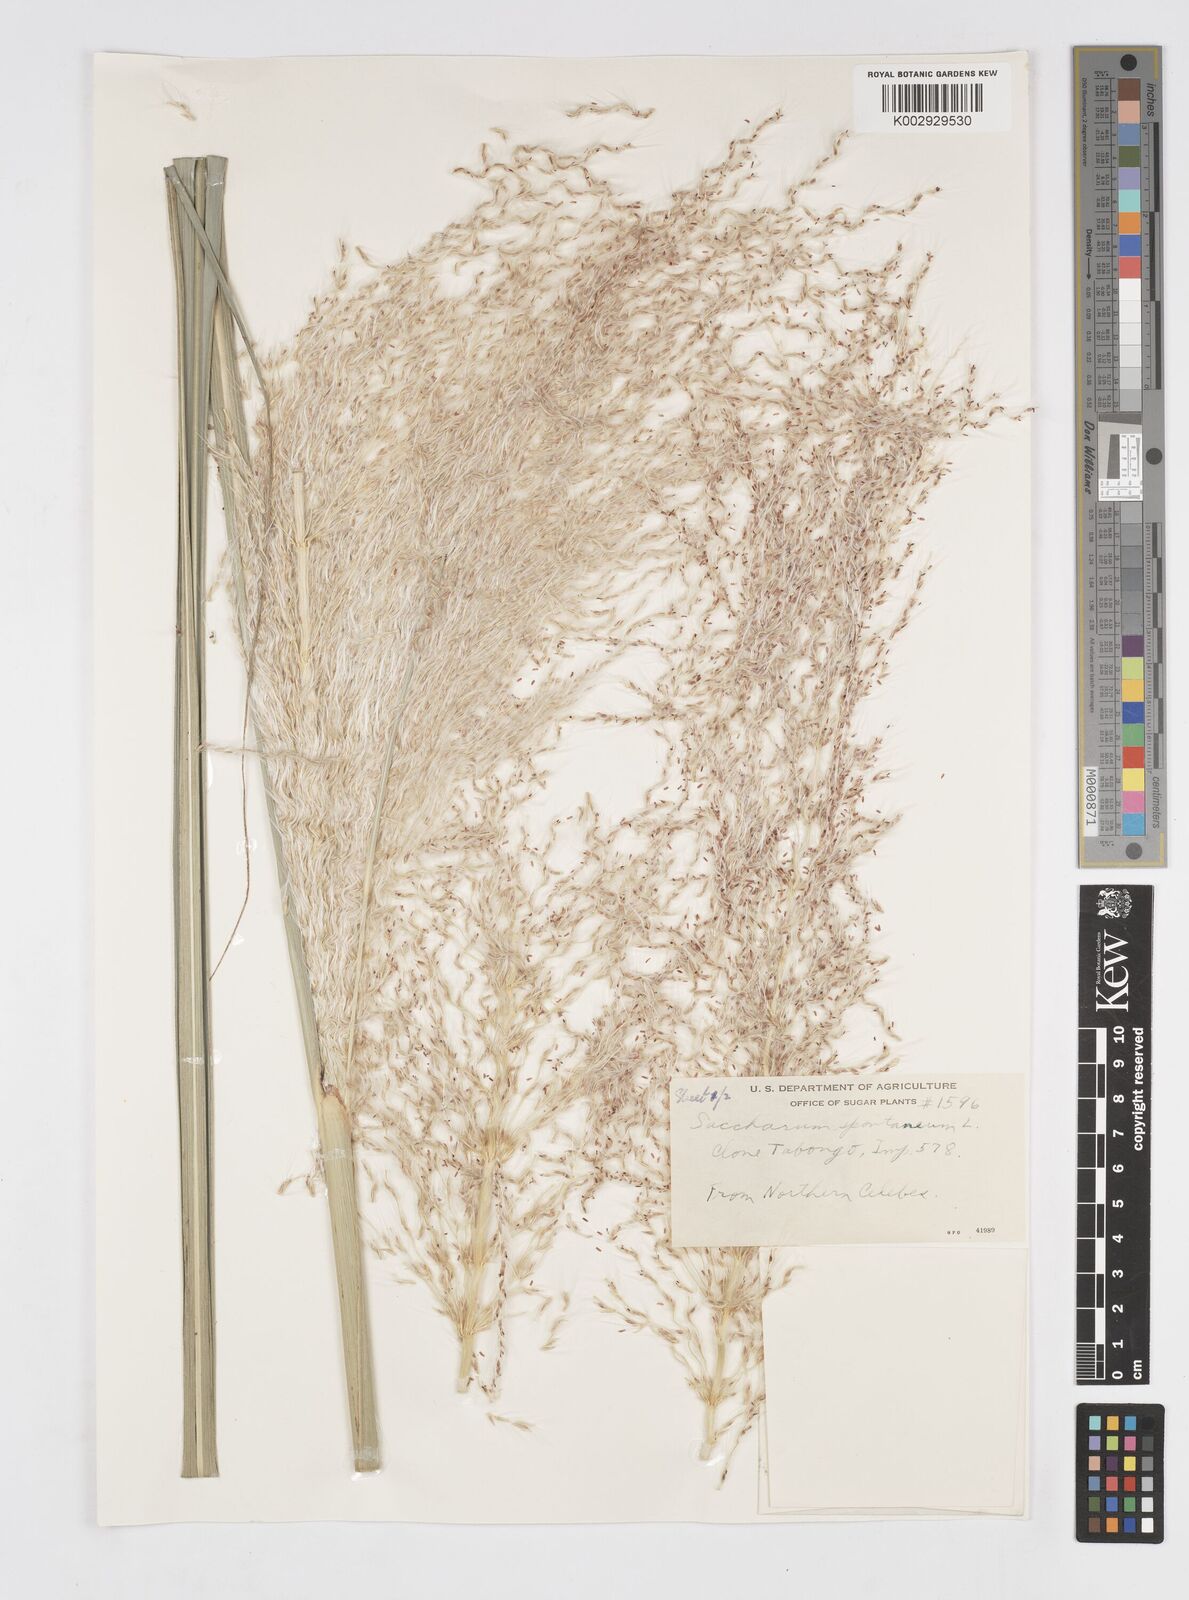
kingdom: Plantae
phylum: Tracheophyta
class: Liliopsida
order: Poales
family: Poaceae
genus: Saccharum
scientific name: Saccharum spontaneum
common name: Wild sugarcane
